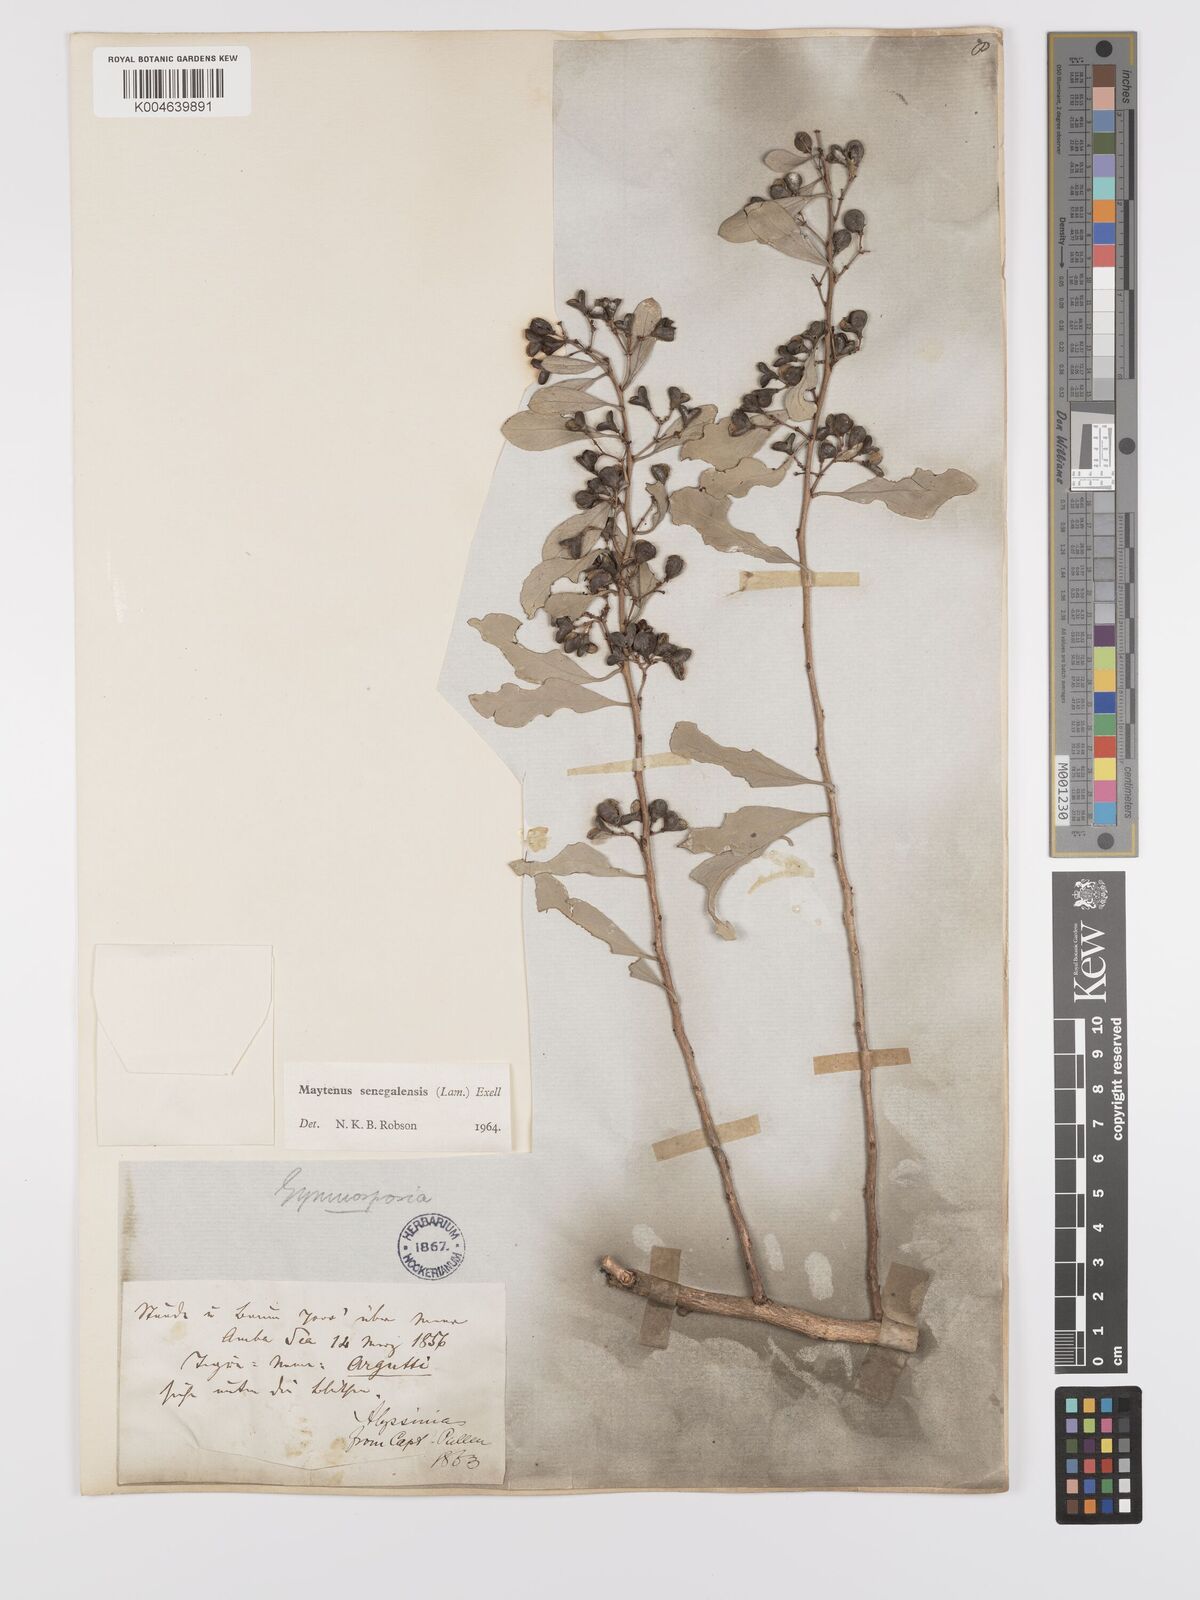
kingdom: Plantae
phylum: Tracheophyta
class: Magnoliopsida
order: Celastrales
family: Celastraceae
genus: Gymnosporia
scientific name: Gymnosporia senegalensis
